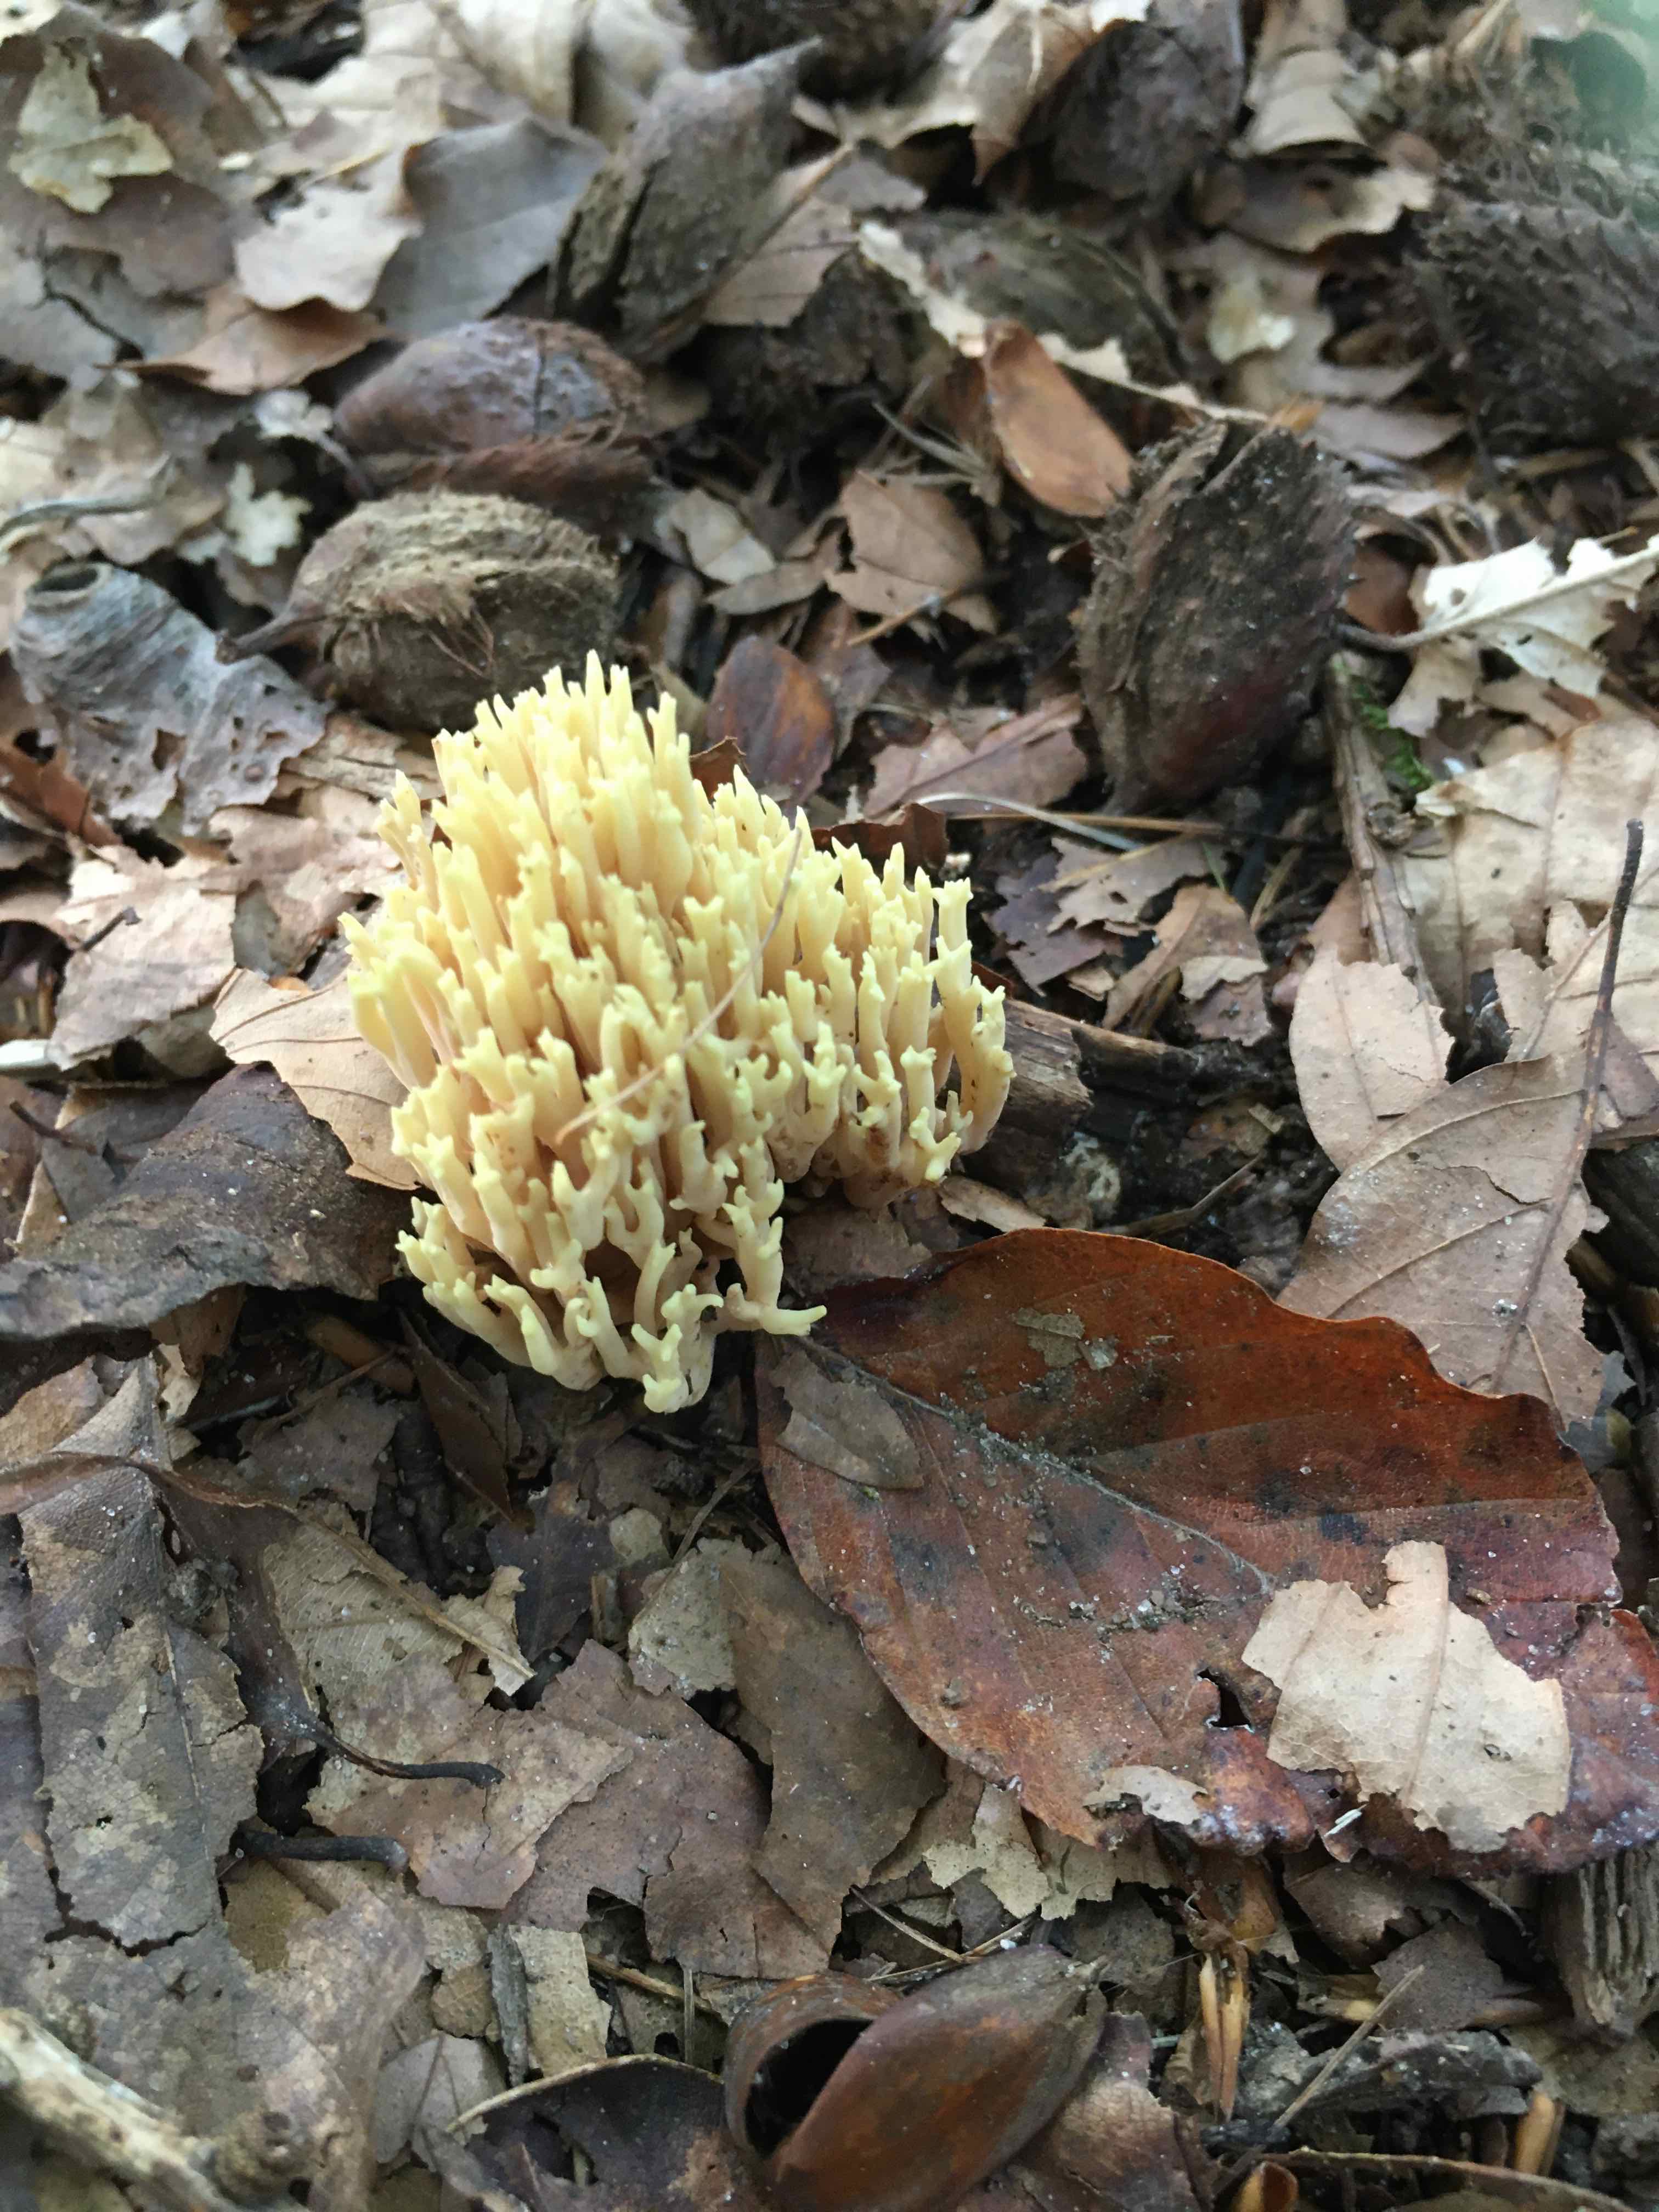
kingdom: Fungi
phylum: Basidiomycota
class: Agaricomycetes
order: Gomphales
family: Gomphaceae
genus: Ramaria
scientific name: Ramaria stricta
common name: rank koralsvamp
